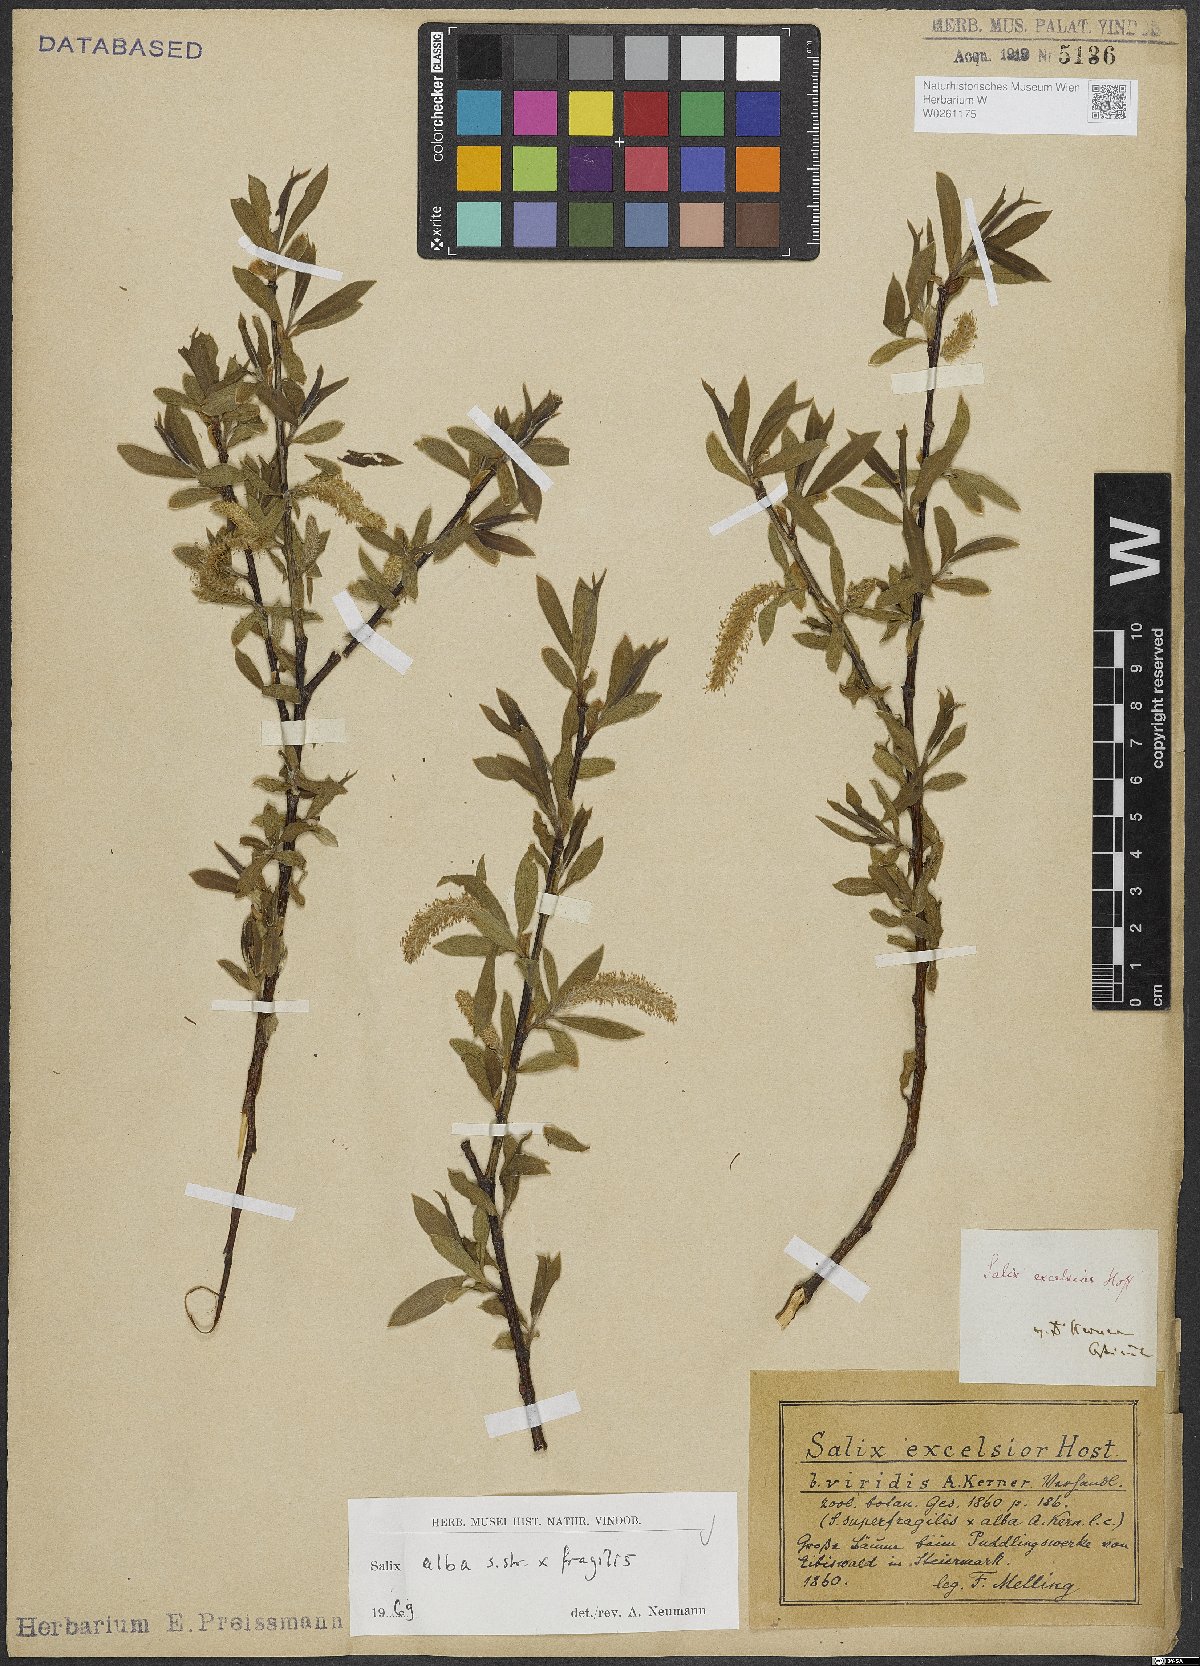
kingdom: Plantae
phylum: Tracheophyta
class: Magnoliopsida
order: Malpighiales
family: Salicaceae
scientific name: Salicaceae
